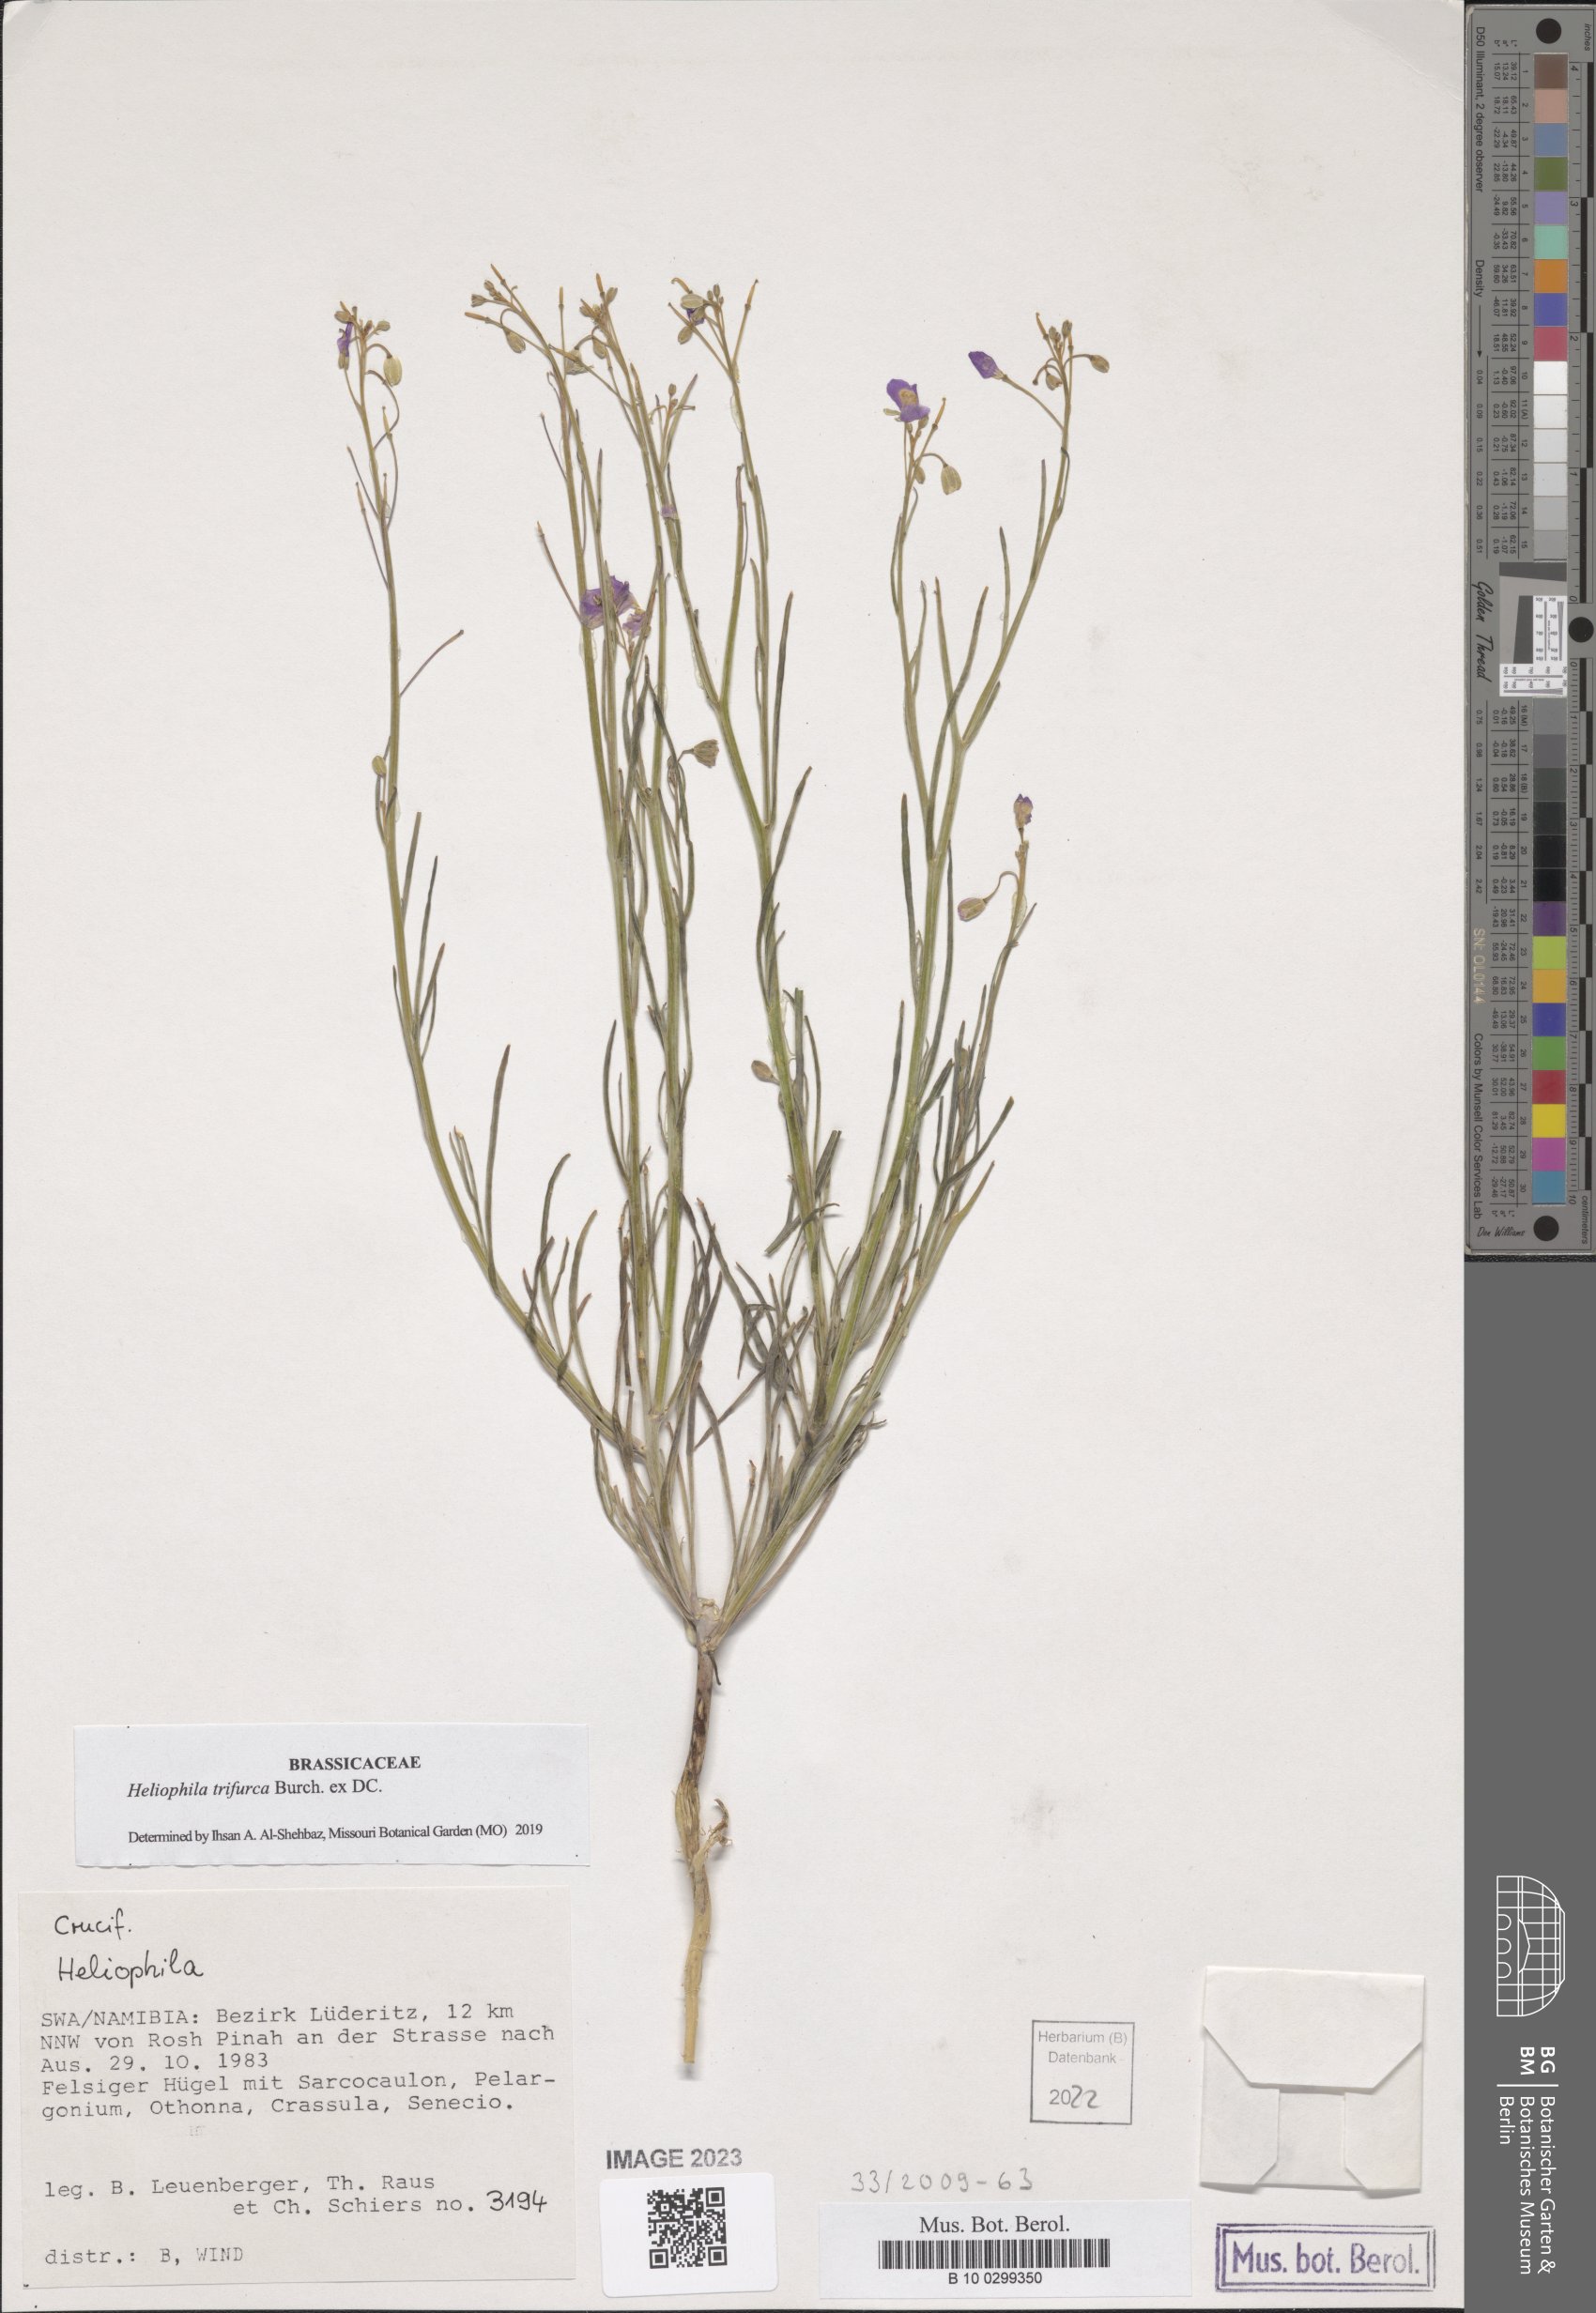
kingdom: Plantae
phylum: Tracheophyta
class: Magnoliopsida
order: Brassicales
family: Brassicaceae
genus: Heliophila
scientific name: Heliophila trifurca
